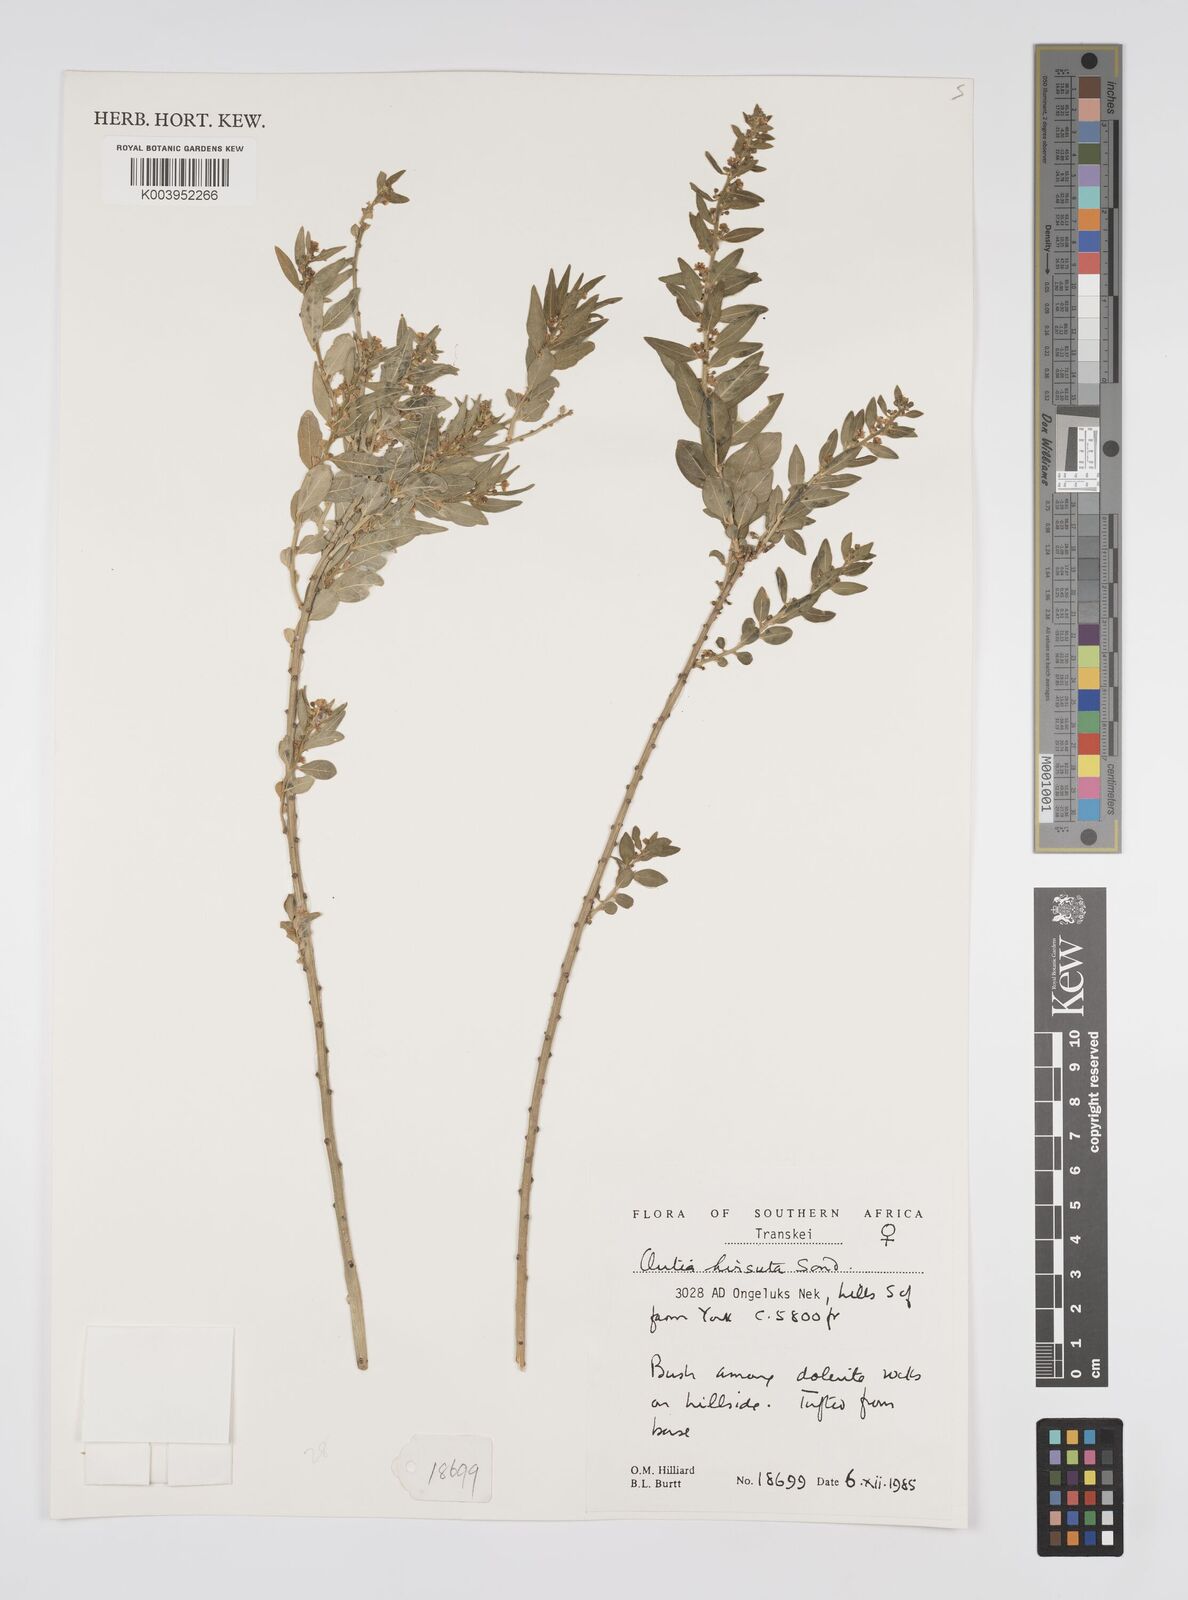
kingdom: Plantae
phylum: Tracheophyta
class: Magnoliopsida
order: Malpighiales
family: Peraceae
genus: Clutia
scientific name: Clutia affinis
